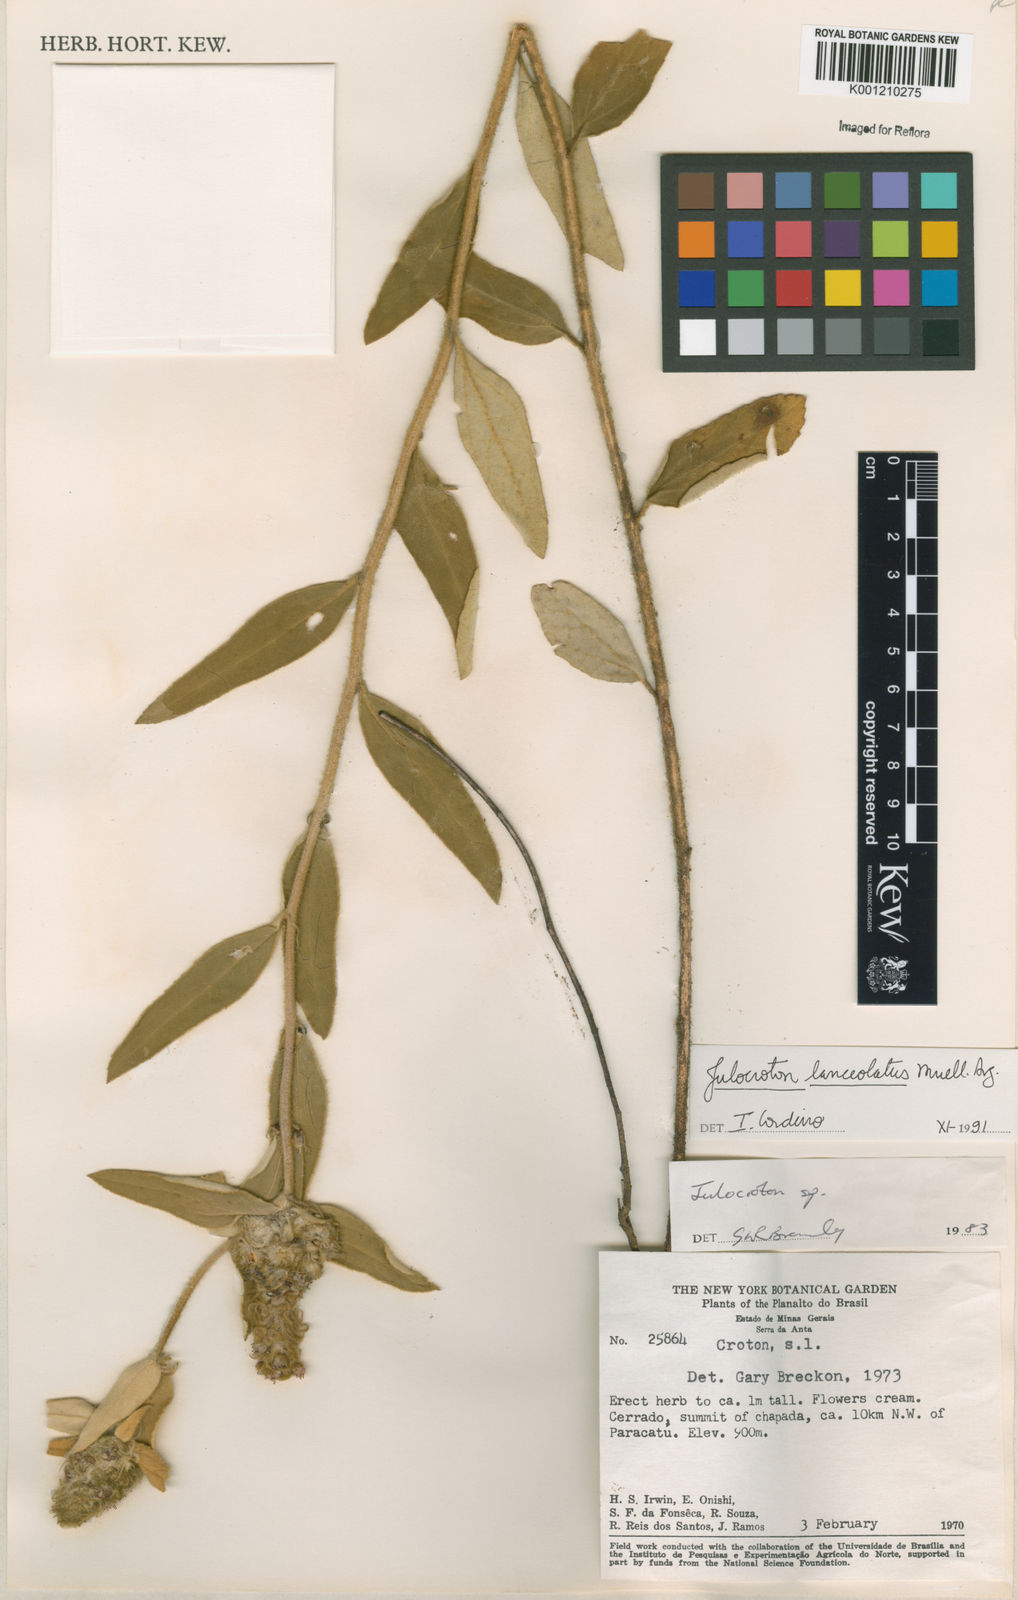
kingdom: Plantae
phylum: Tracheophyta
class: Magnoliopsida
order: Malpighiales
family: Euphorbiaceae
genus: Croton
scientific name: Croton
